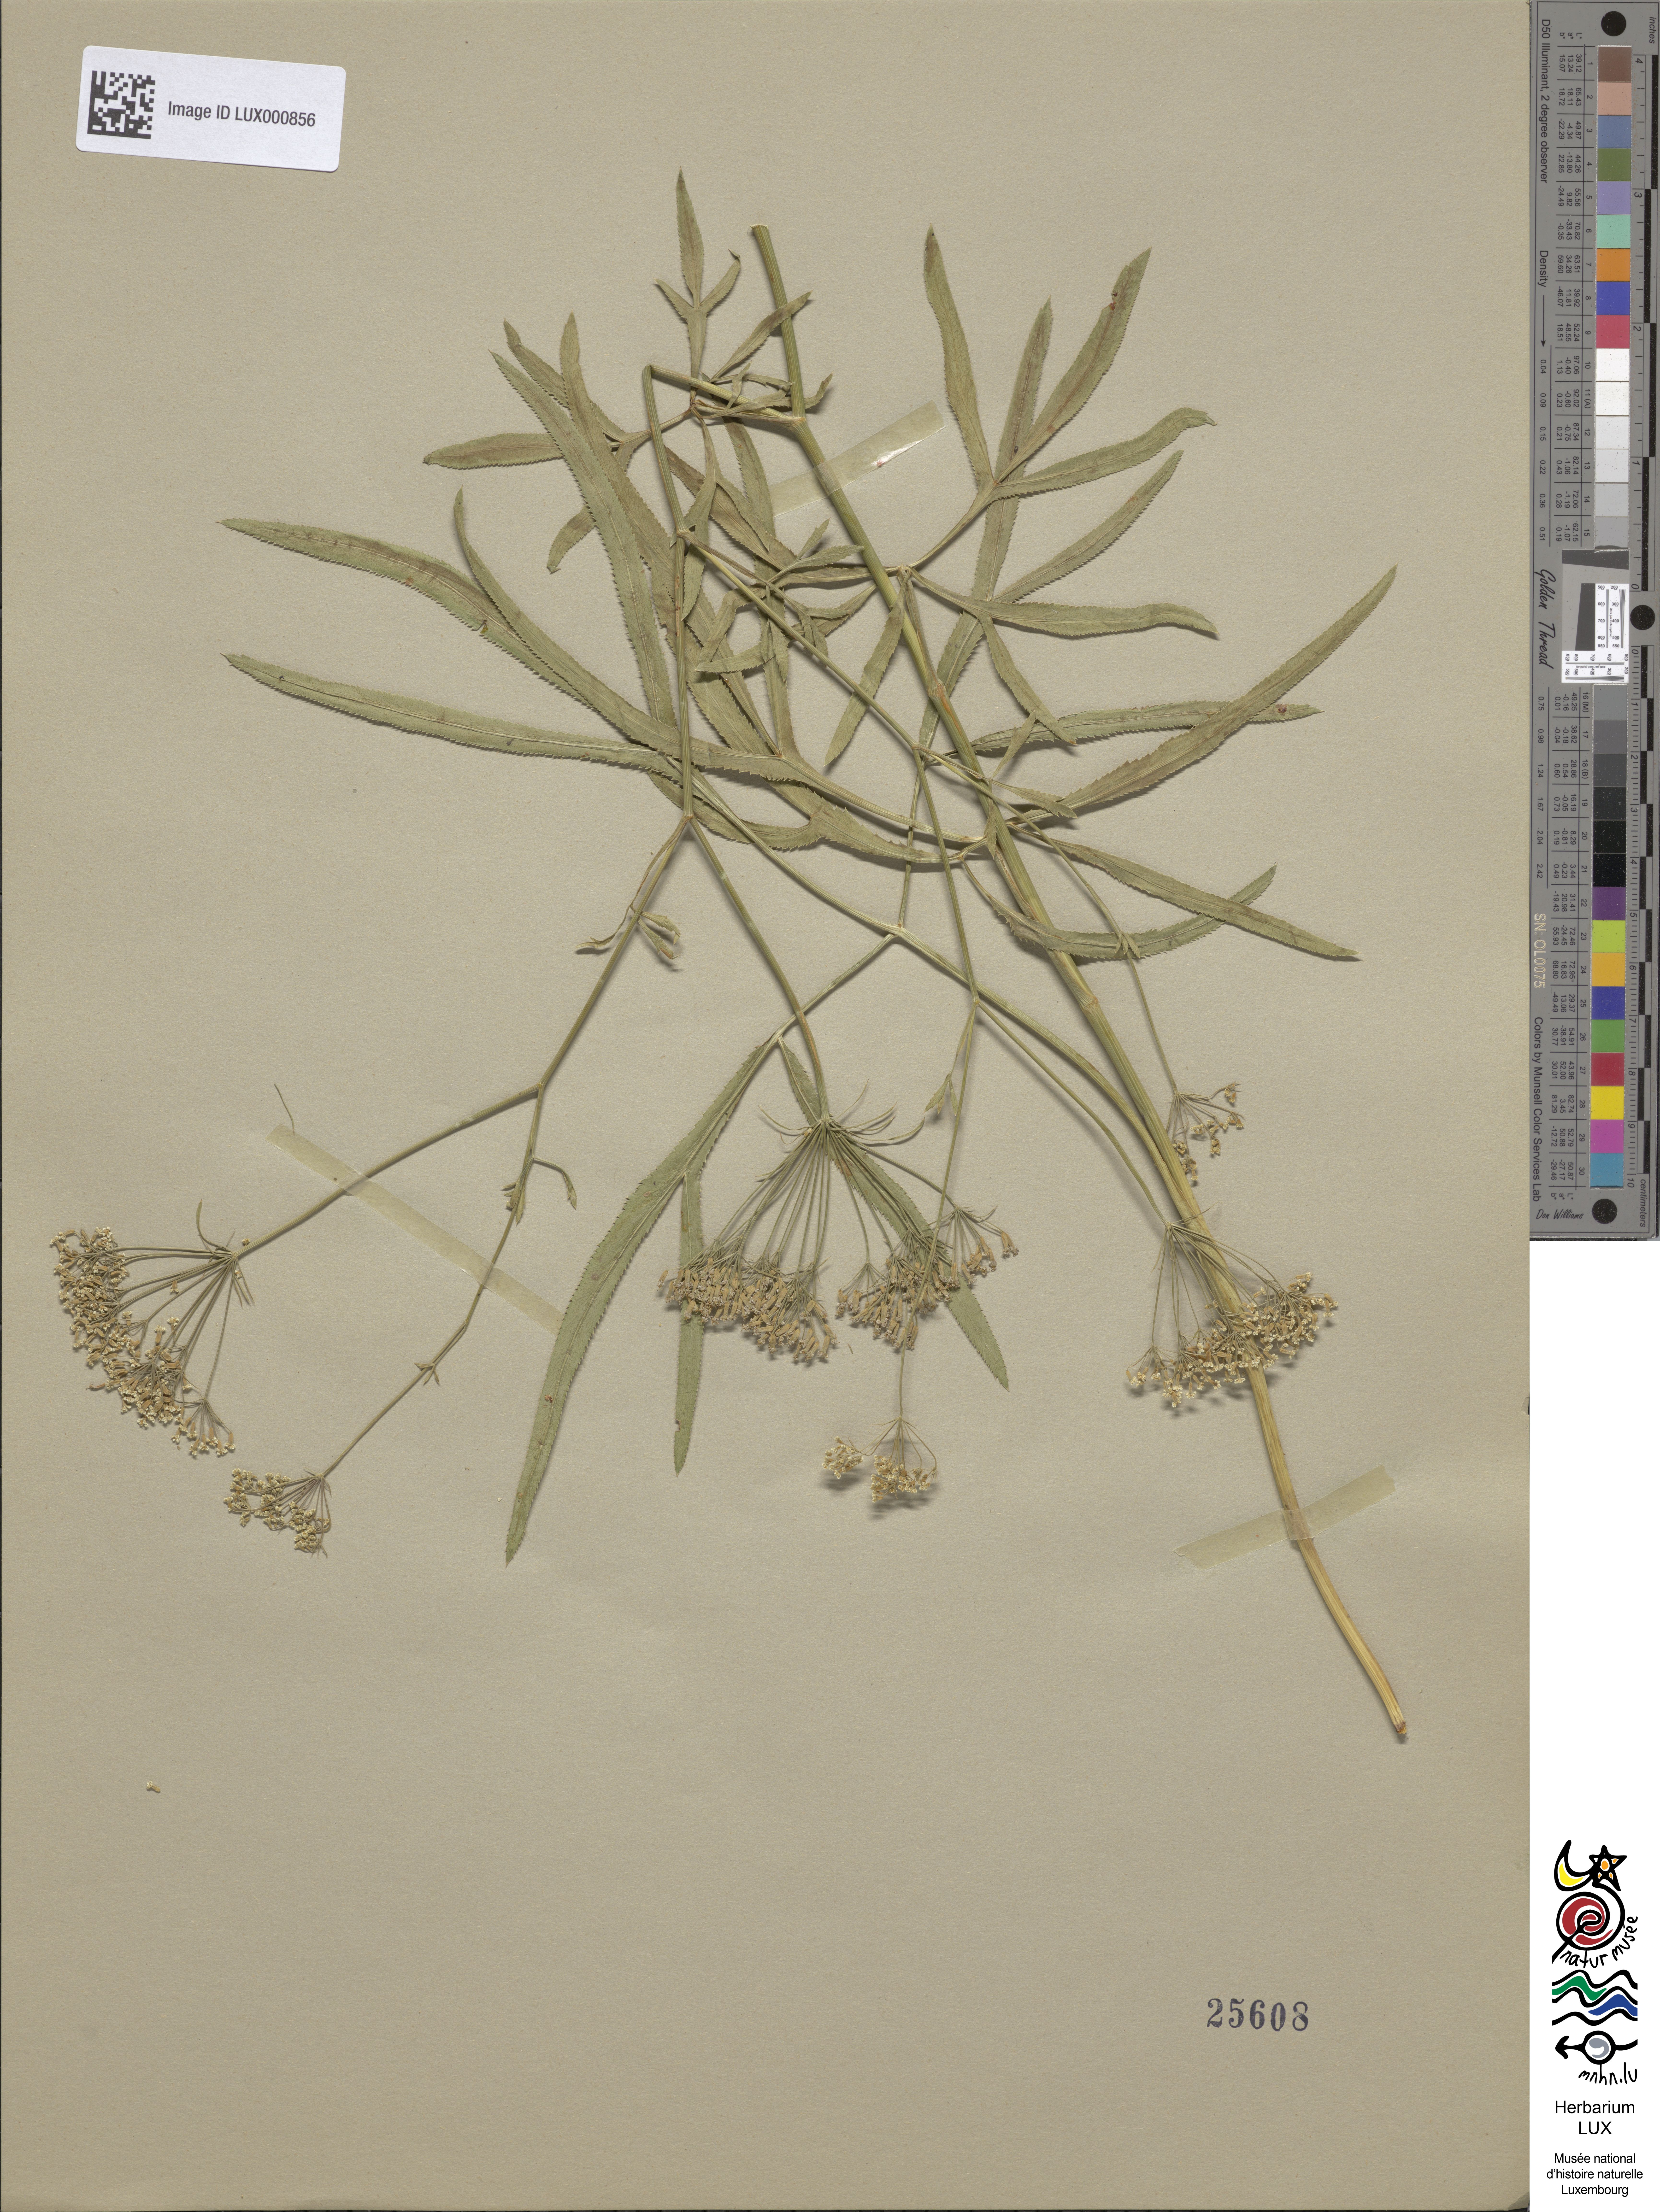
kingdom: Plantae
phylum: Tracheophyta
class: Magnoliopsida
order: Apiales
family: Apiaceae
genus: Falcaria
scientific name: Falcaria vulgaris
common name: Longleaf
